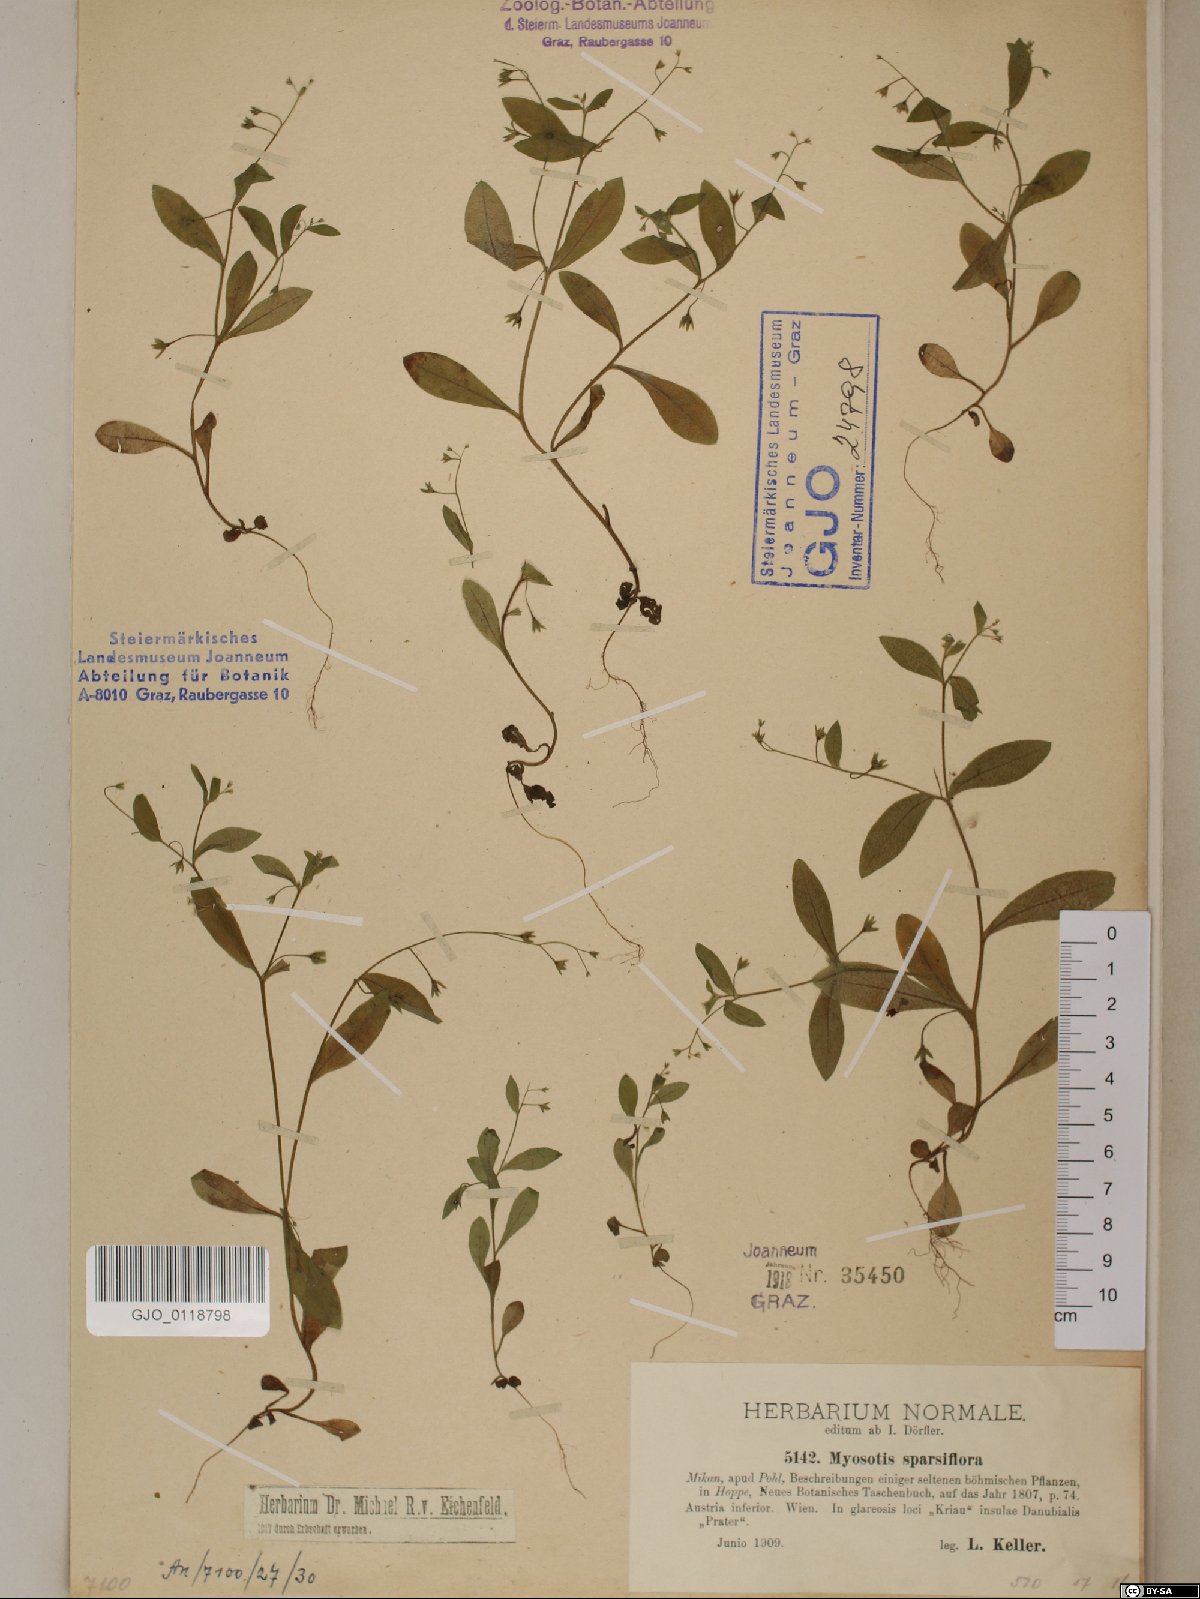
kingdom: Plantae
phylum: Tracheophyta
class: Magnoliopsida
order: Boraginales
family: Boraginaceae
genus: Myosotis
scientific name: Myosotis sparsiflora
